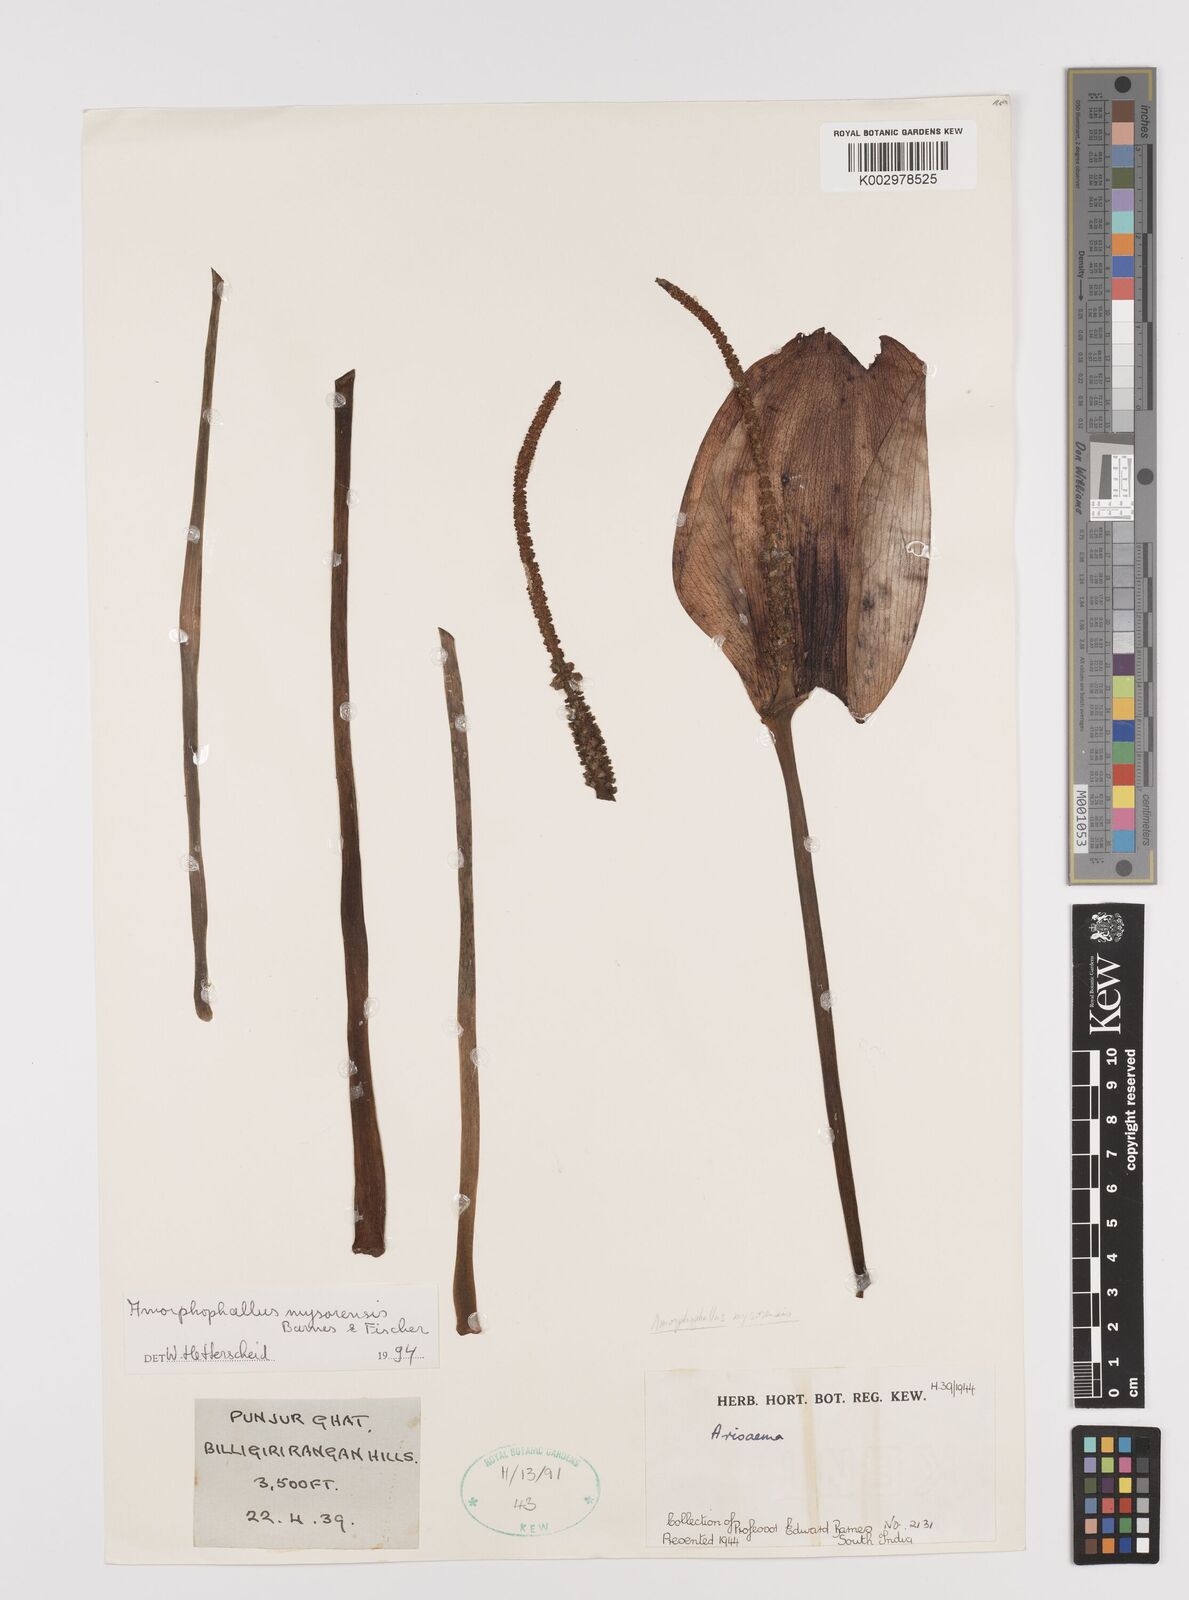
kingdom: Plantae
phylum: Tracheophyta
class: Liliopsida
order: Alismatales
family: Araceae
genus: Amorphophallus
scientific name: Amorphophallus mysorensis
